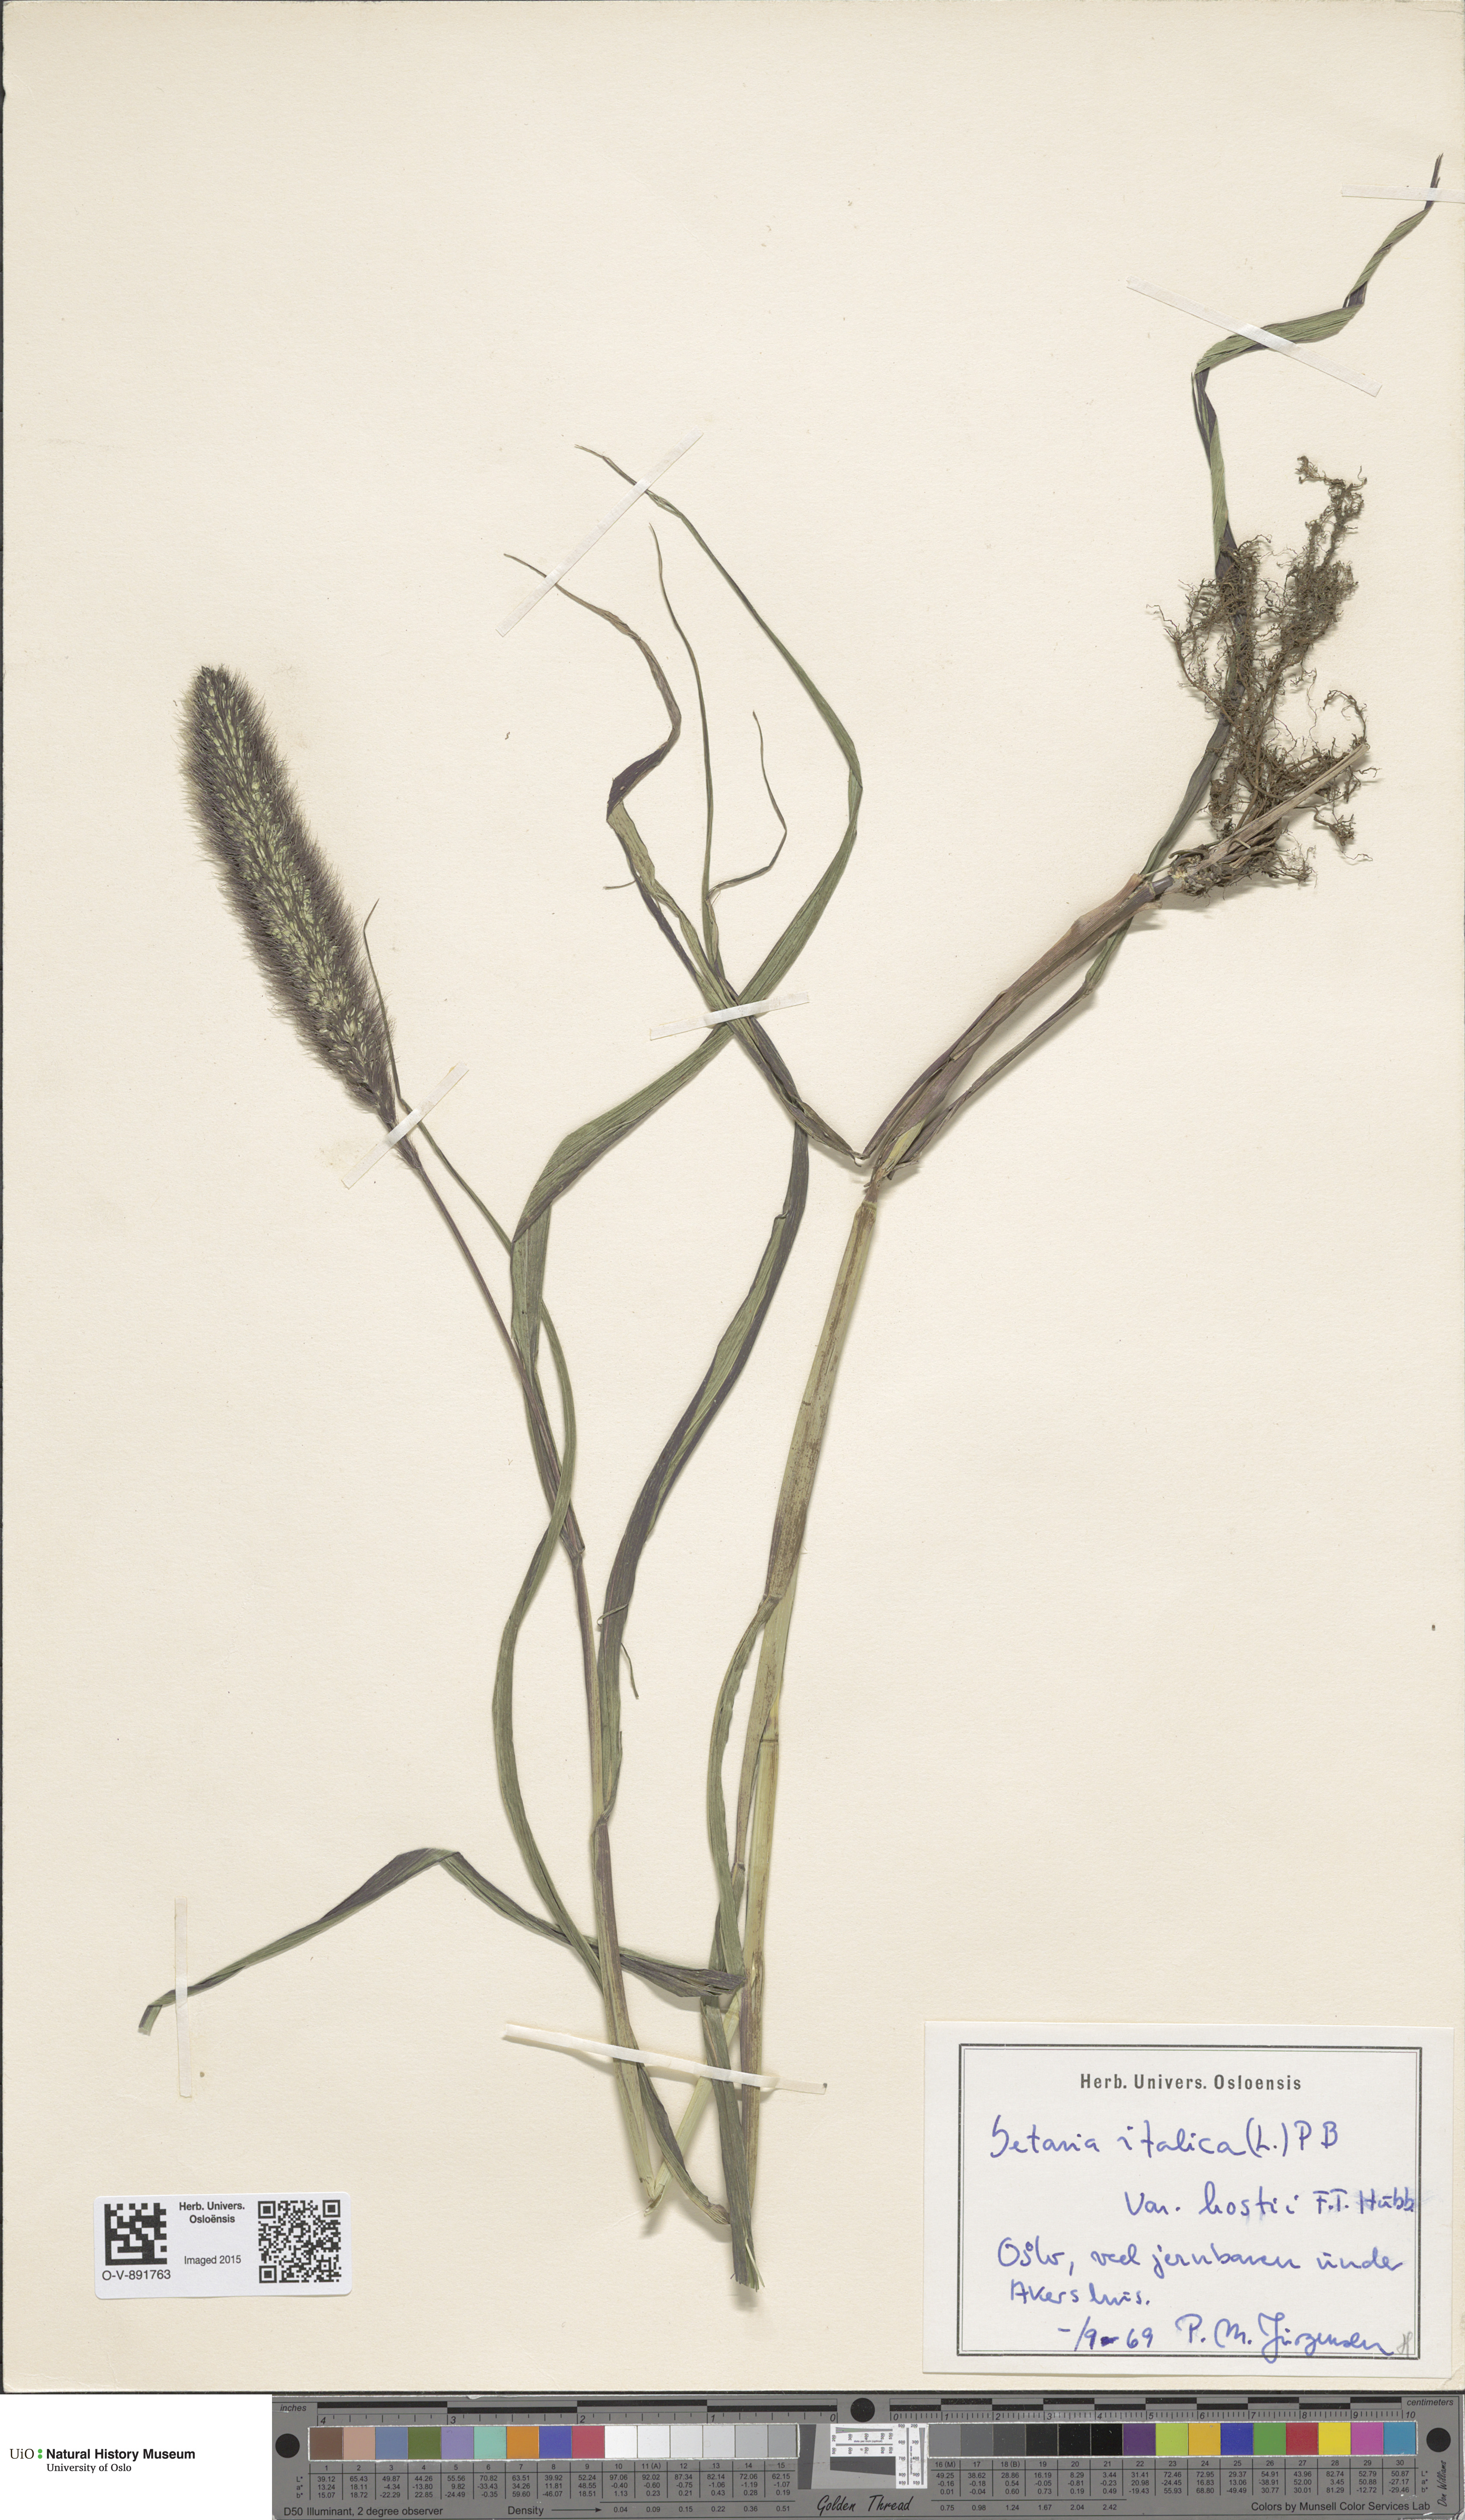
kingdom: Plantae
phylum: Tracheophyta
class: Liliopsida
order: Poales
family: Poaceae
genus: Setaria
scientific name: Setaria italica
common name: Foxtail bristle-grass
